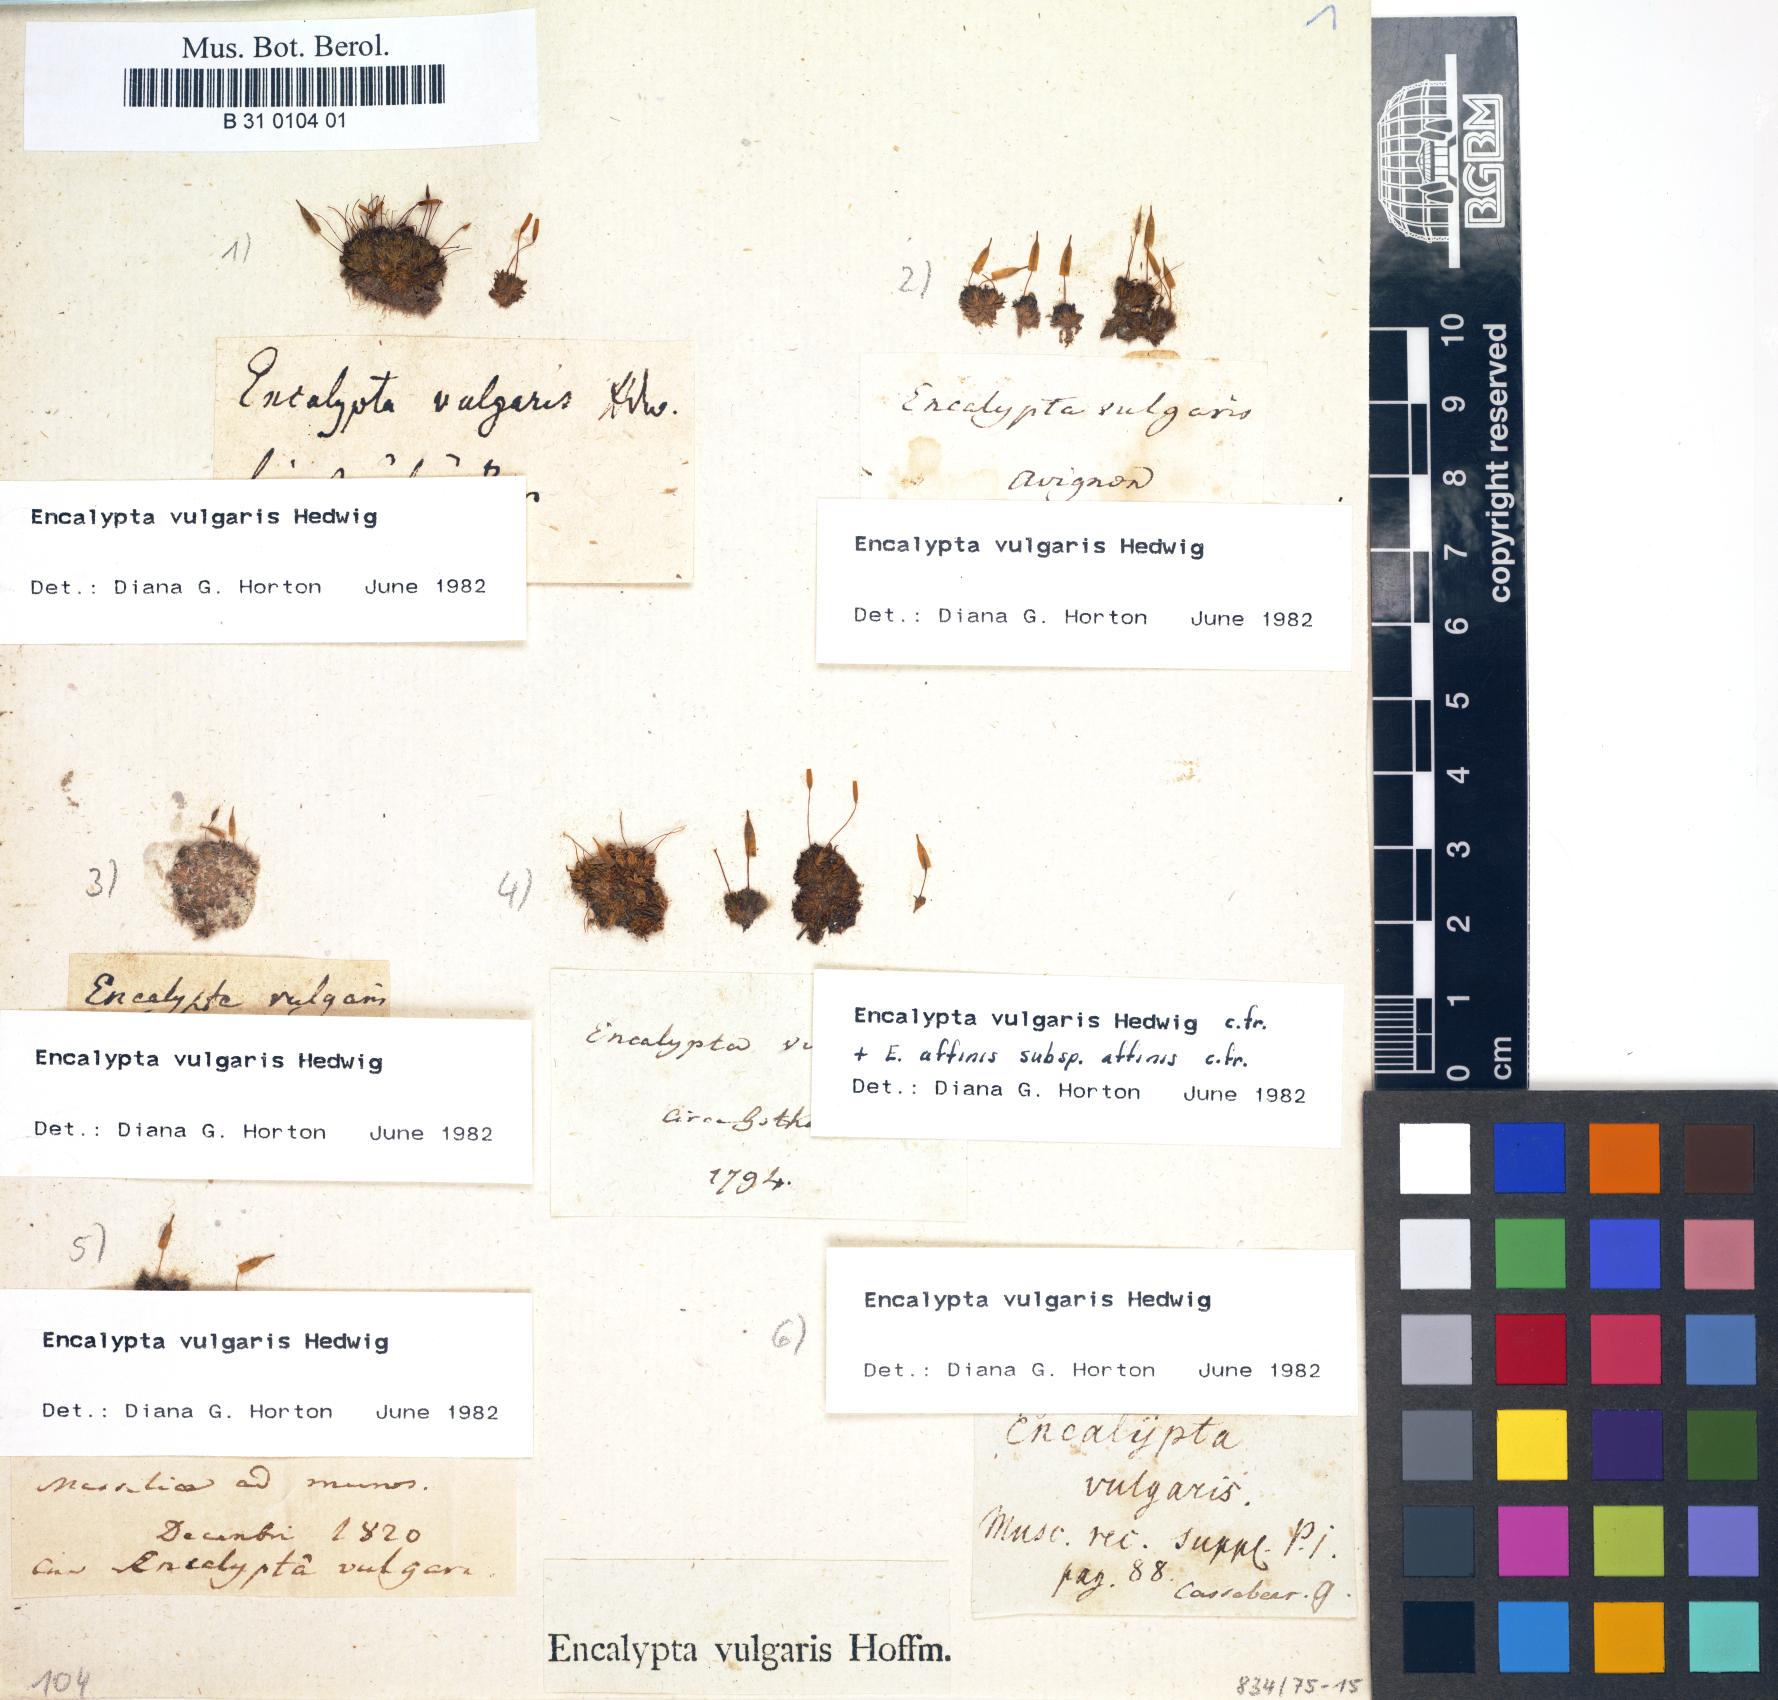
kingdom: Plantae
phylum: Bryophyta
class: Bryopsida
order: Encalyptales
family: Encalyptaceae
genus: Encalypta
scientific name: Encalypta vulgaris
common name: Common extinguisher-moss
